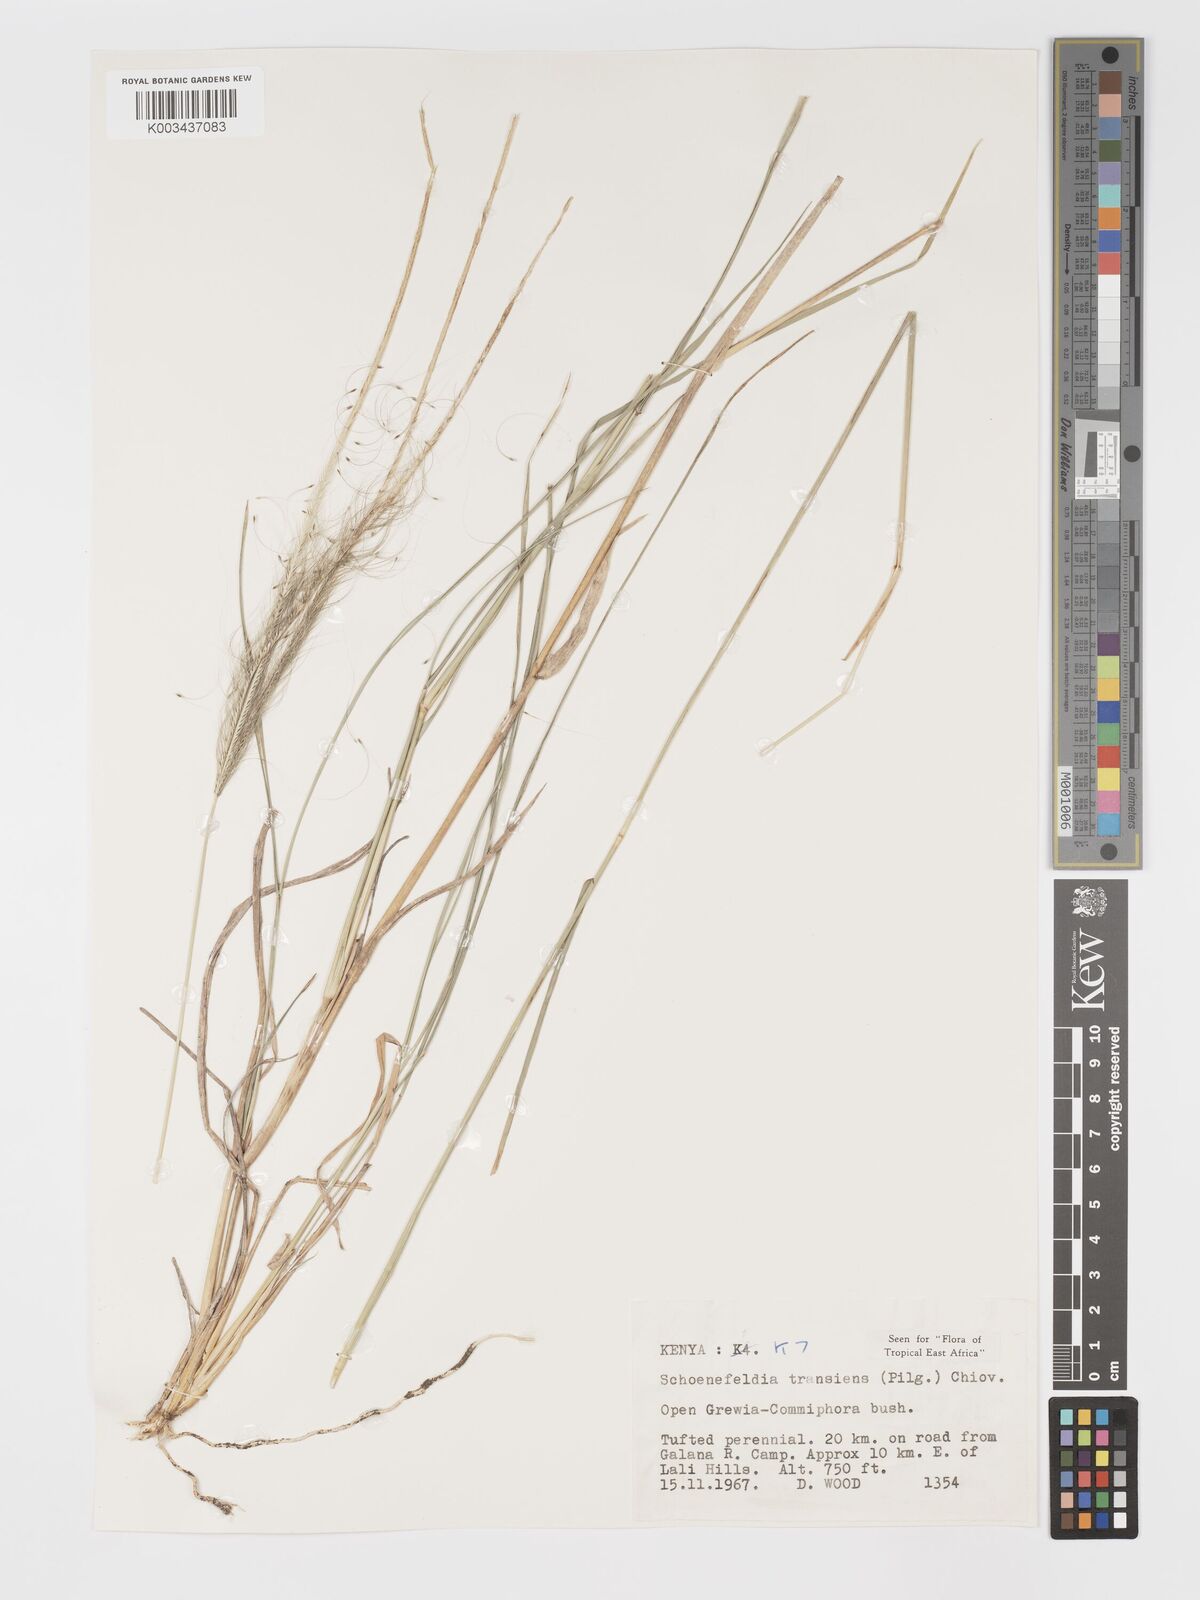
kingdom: Plantae
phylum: Tracheophyta
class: Liliopsida
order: Poales
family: Poaceae
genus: Schoenefeldia
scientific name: Schoenefeldia transiens
